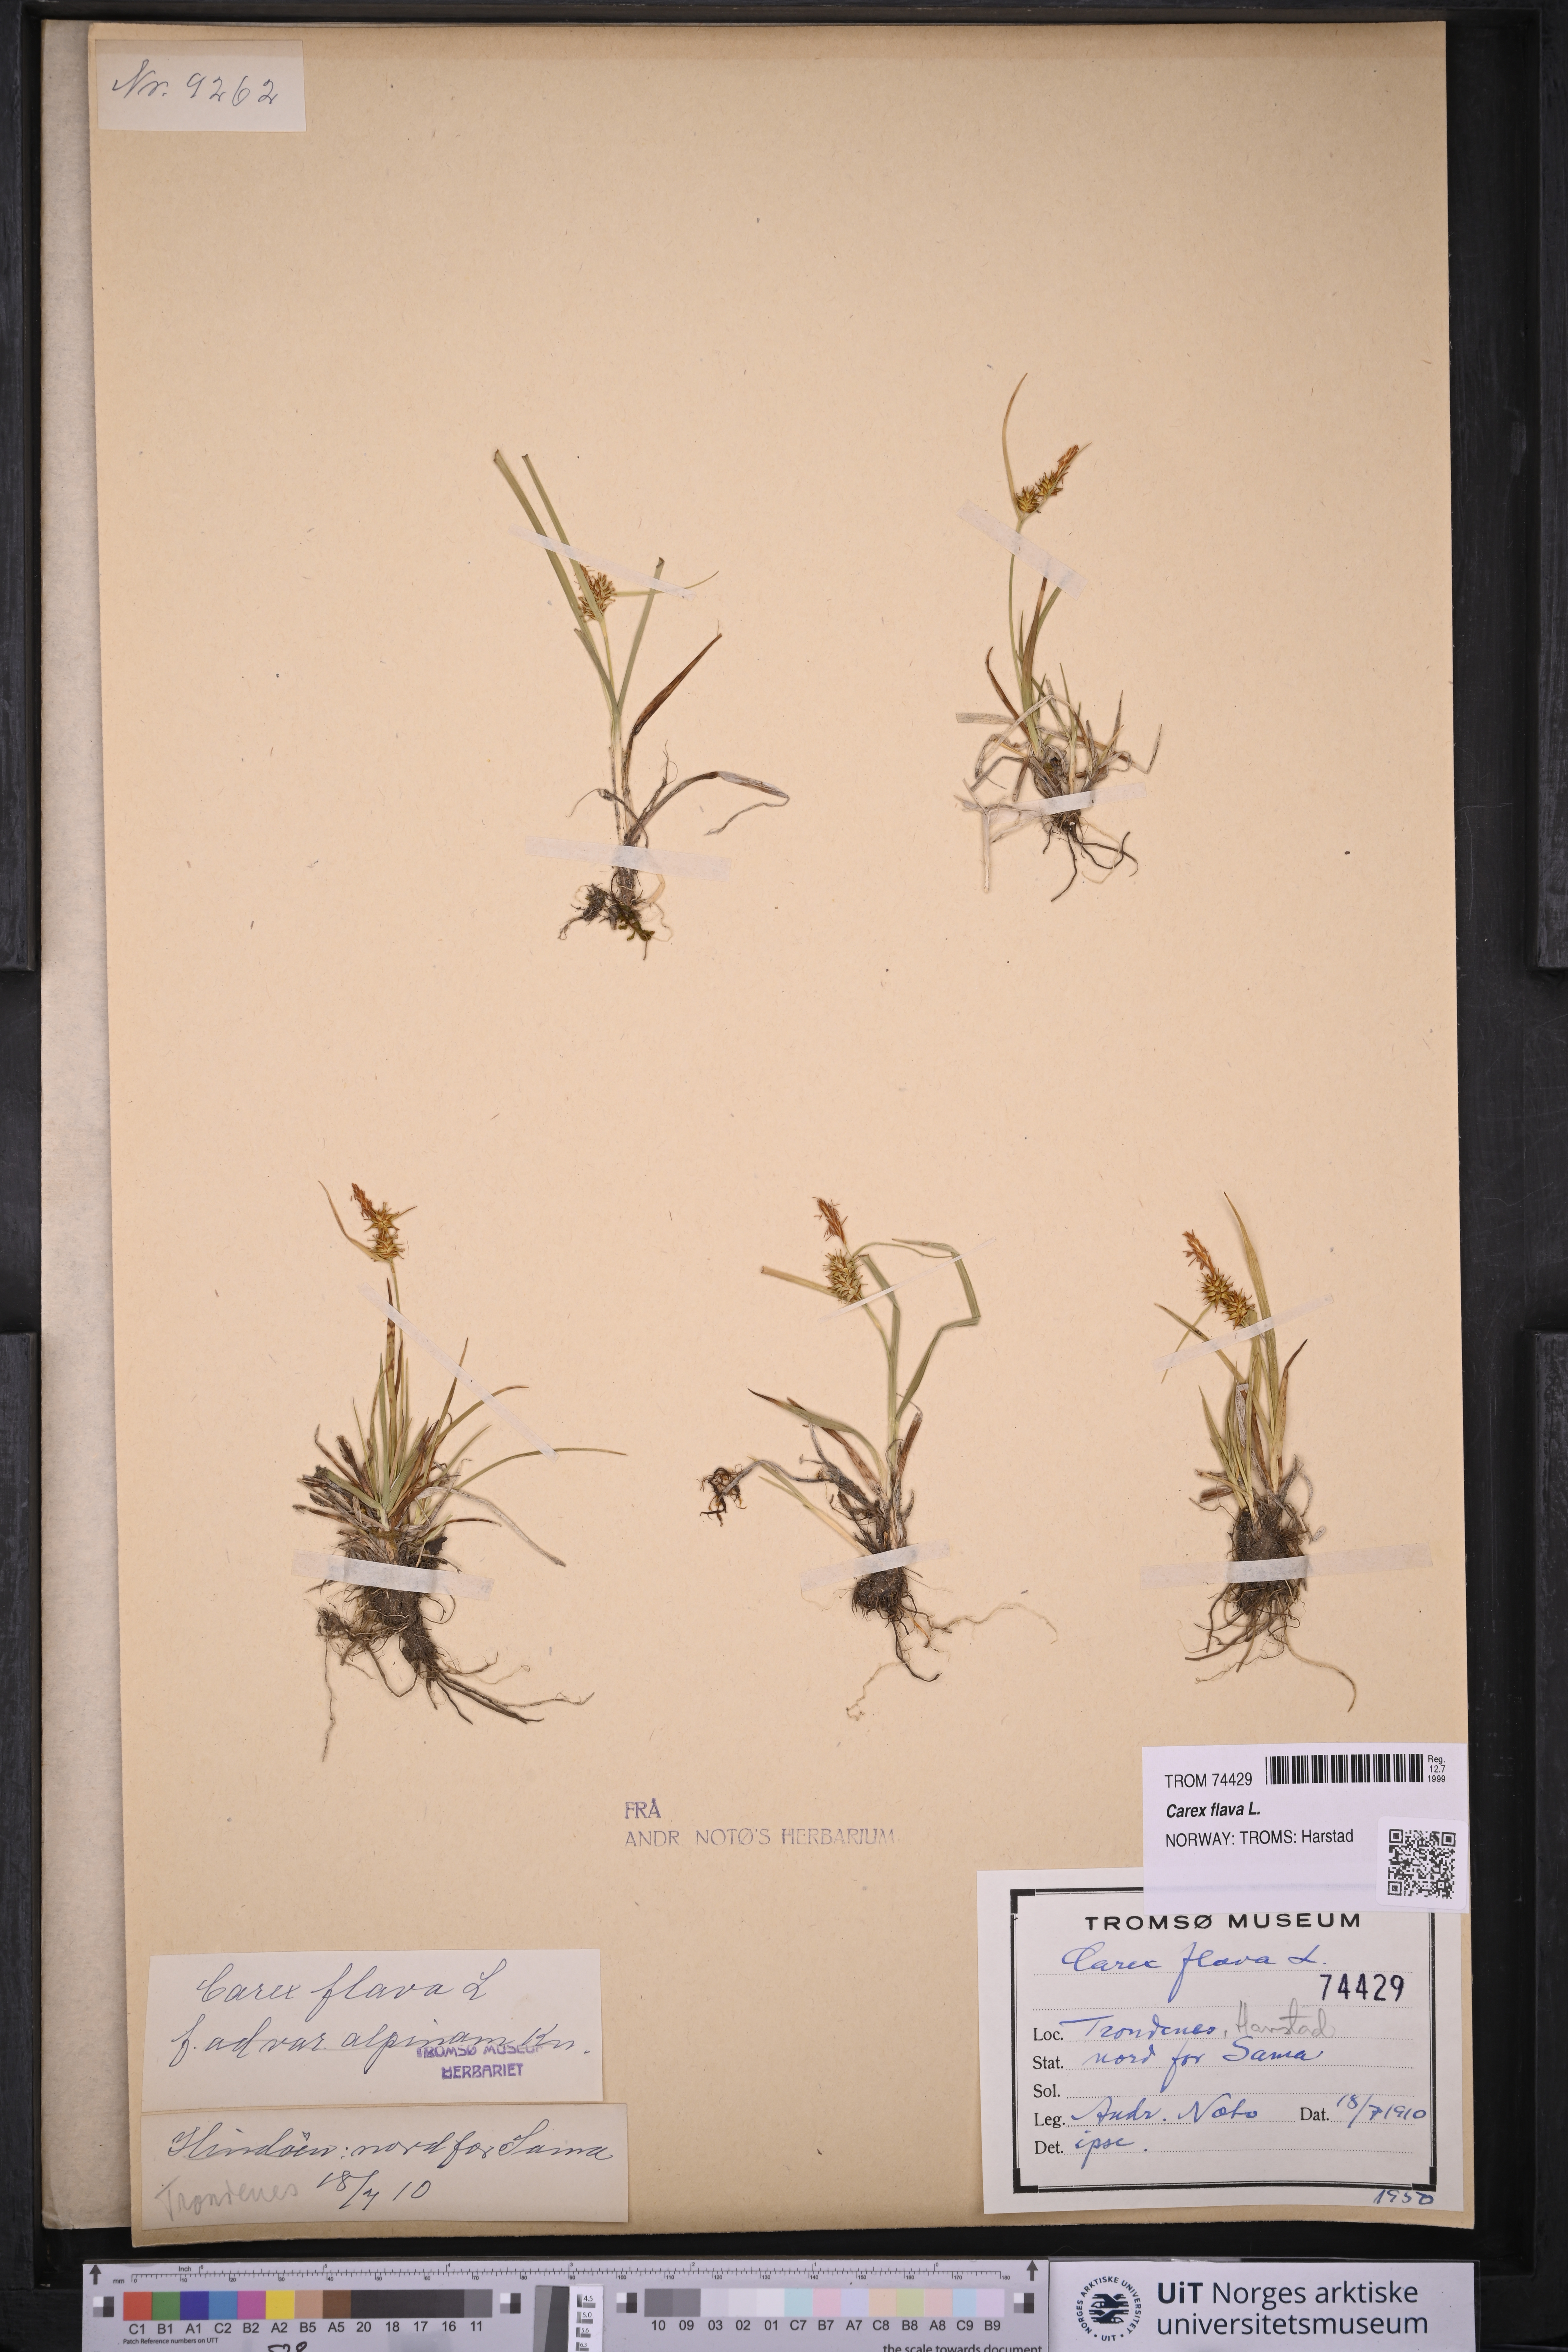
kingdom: Plantae
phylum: Tracheophyta
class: Liliopsida
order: Poales
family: Cyperaceae
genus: Carex
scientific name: Carex flava
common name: Large yellow-sedge
